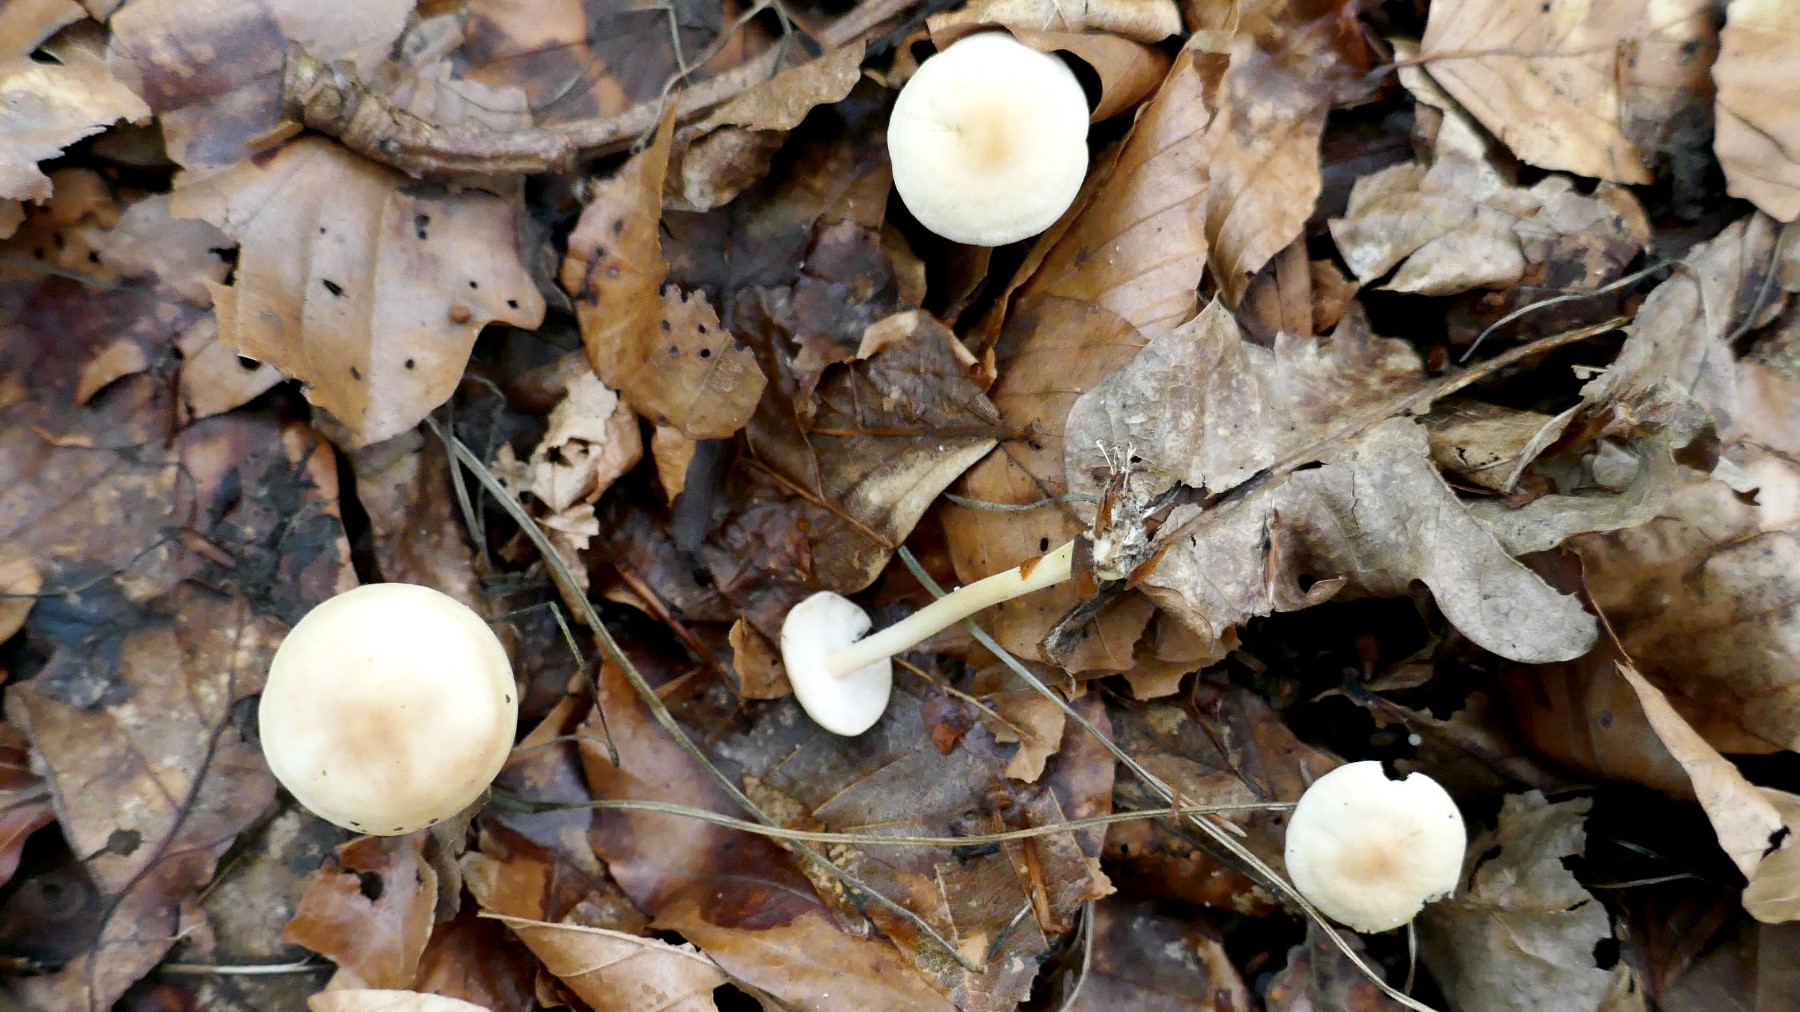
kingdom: Fungi
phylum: Basidiomycota
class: Agaricomycetes
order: Agaricales
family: Omphalotaceae
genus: Gymnopus
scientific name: Gymnopus dryophilus
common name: løv-fladhat
